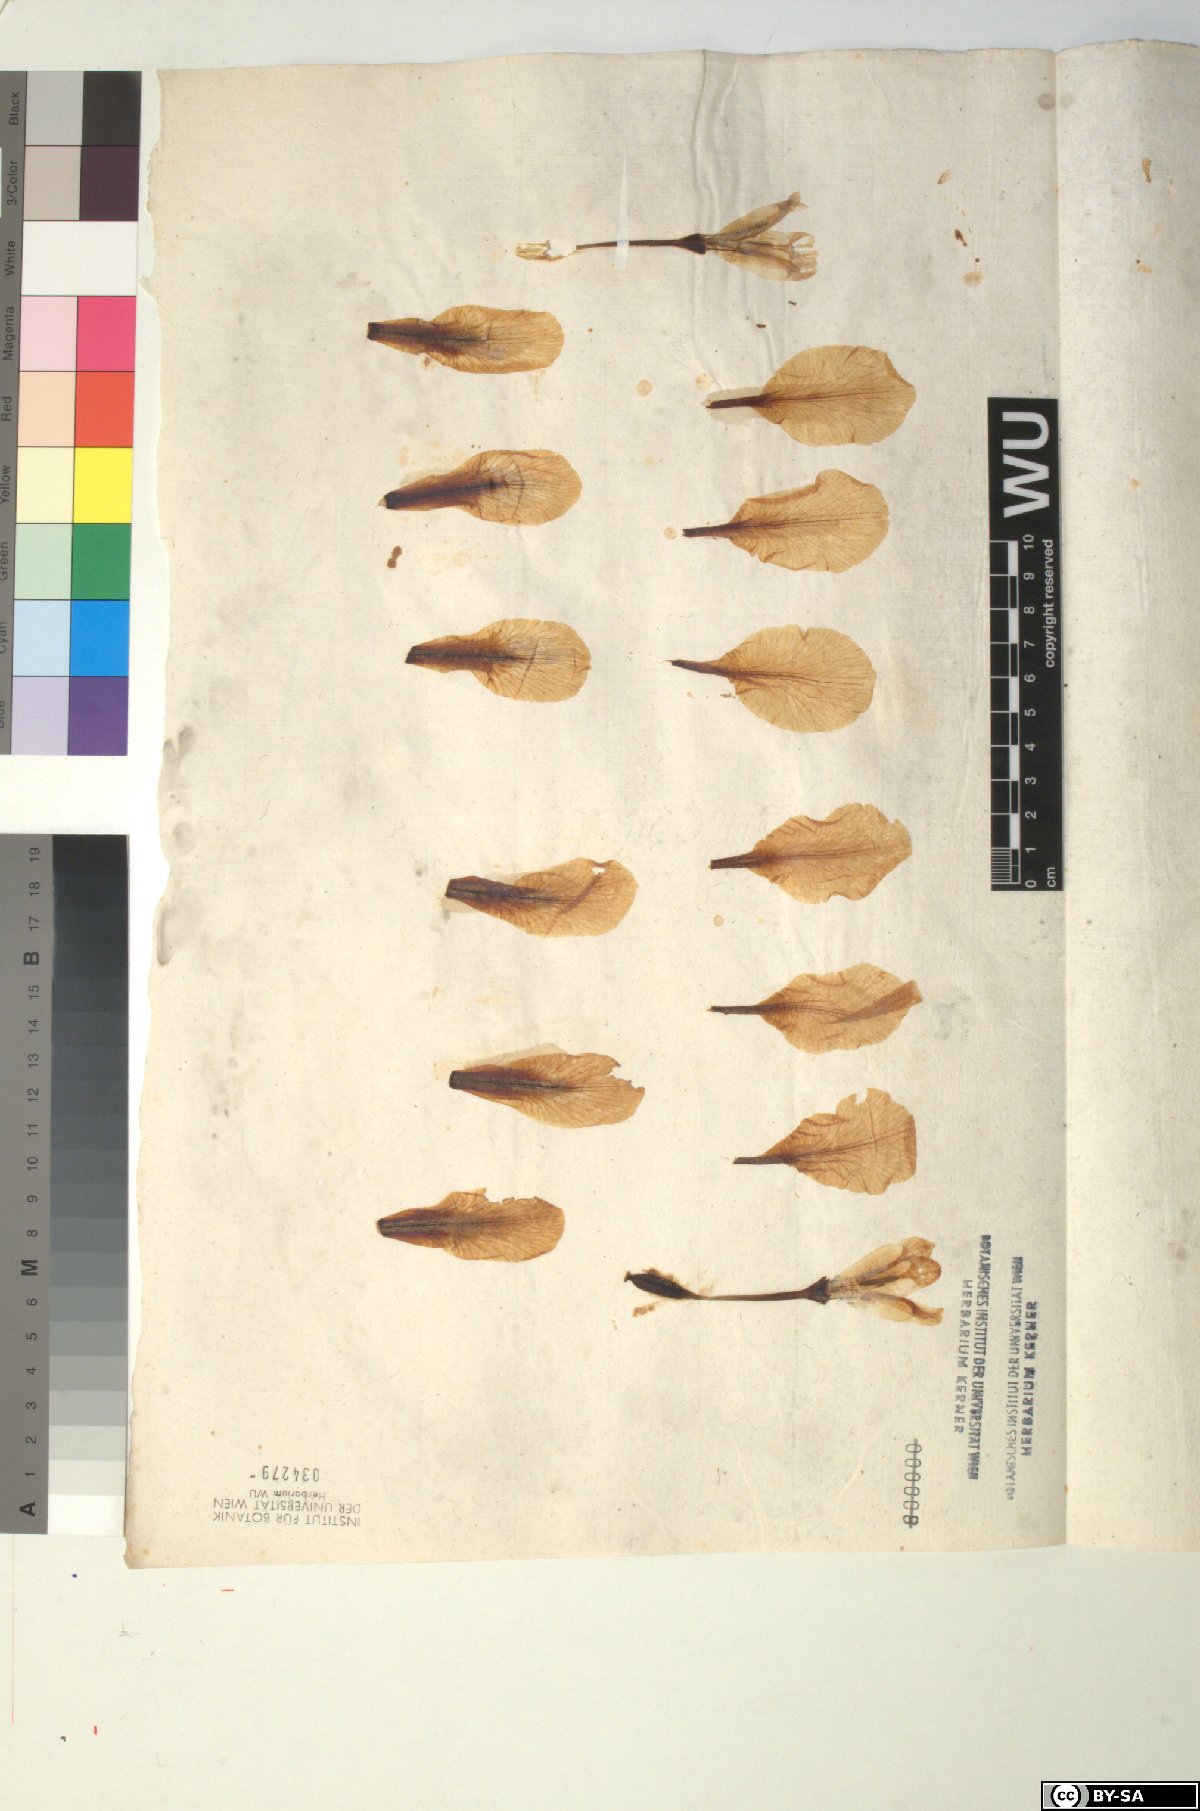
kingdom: Plantae
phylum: Tracheophyta
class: Liliopsida
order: Asparagales
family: Iridaceae
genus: Iris
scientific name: Iris pallida
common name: Sweet iris
